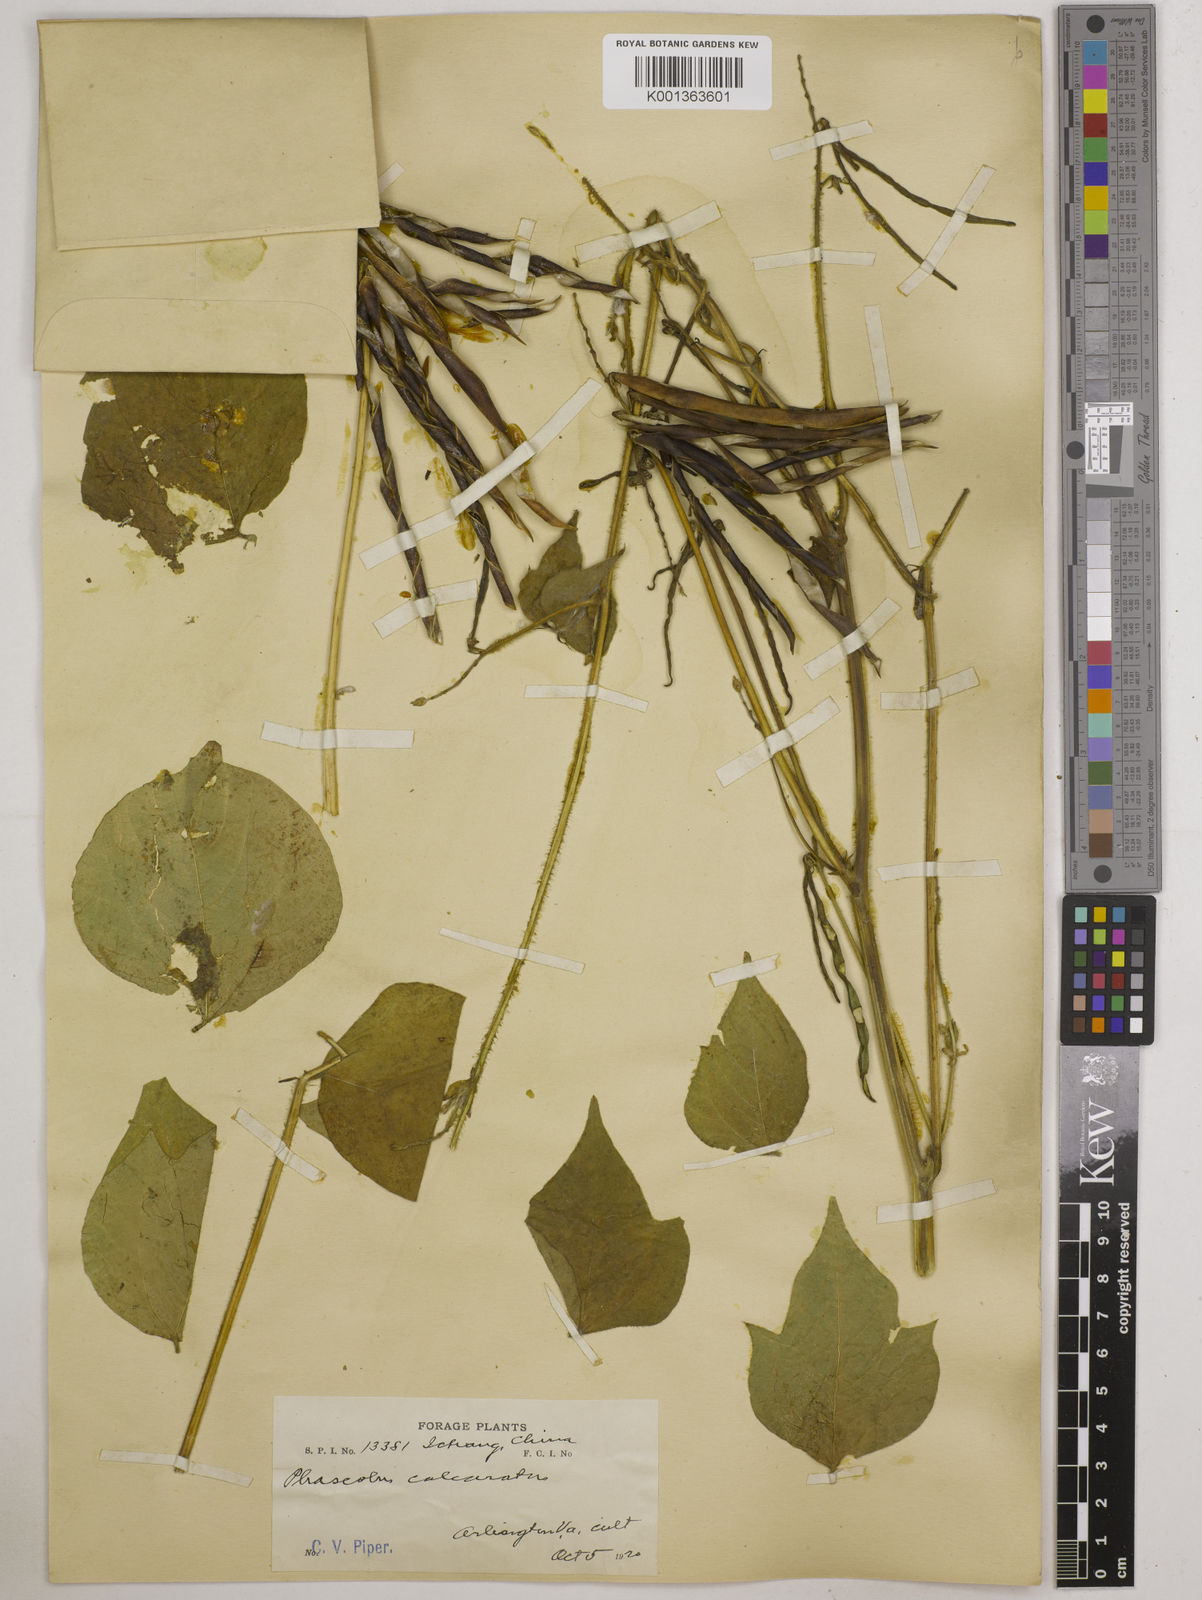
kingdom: Plantae
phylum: Tracheophyta
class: Magnoliopsida
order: Fabales
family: Fabaceae
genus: Vigna
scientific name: Vigna umbellata
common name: Oriental-bean
